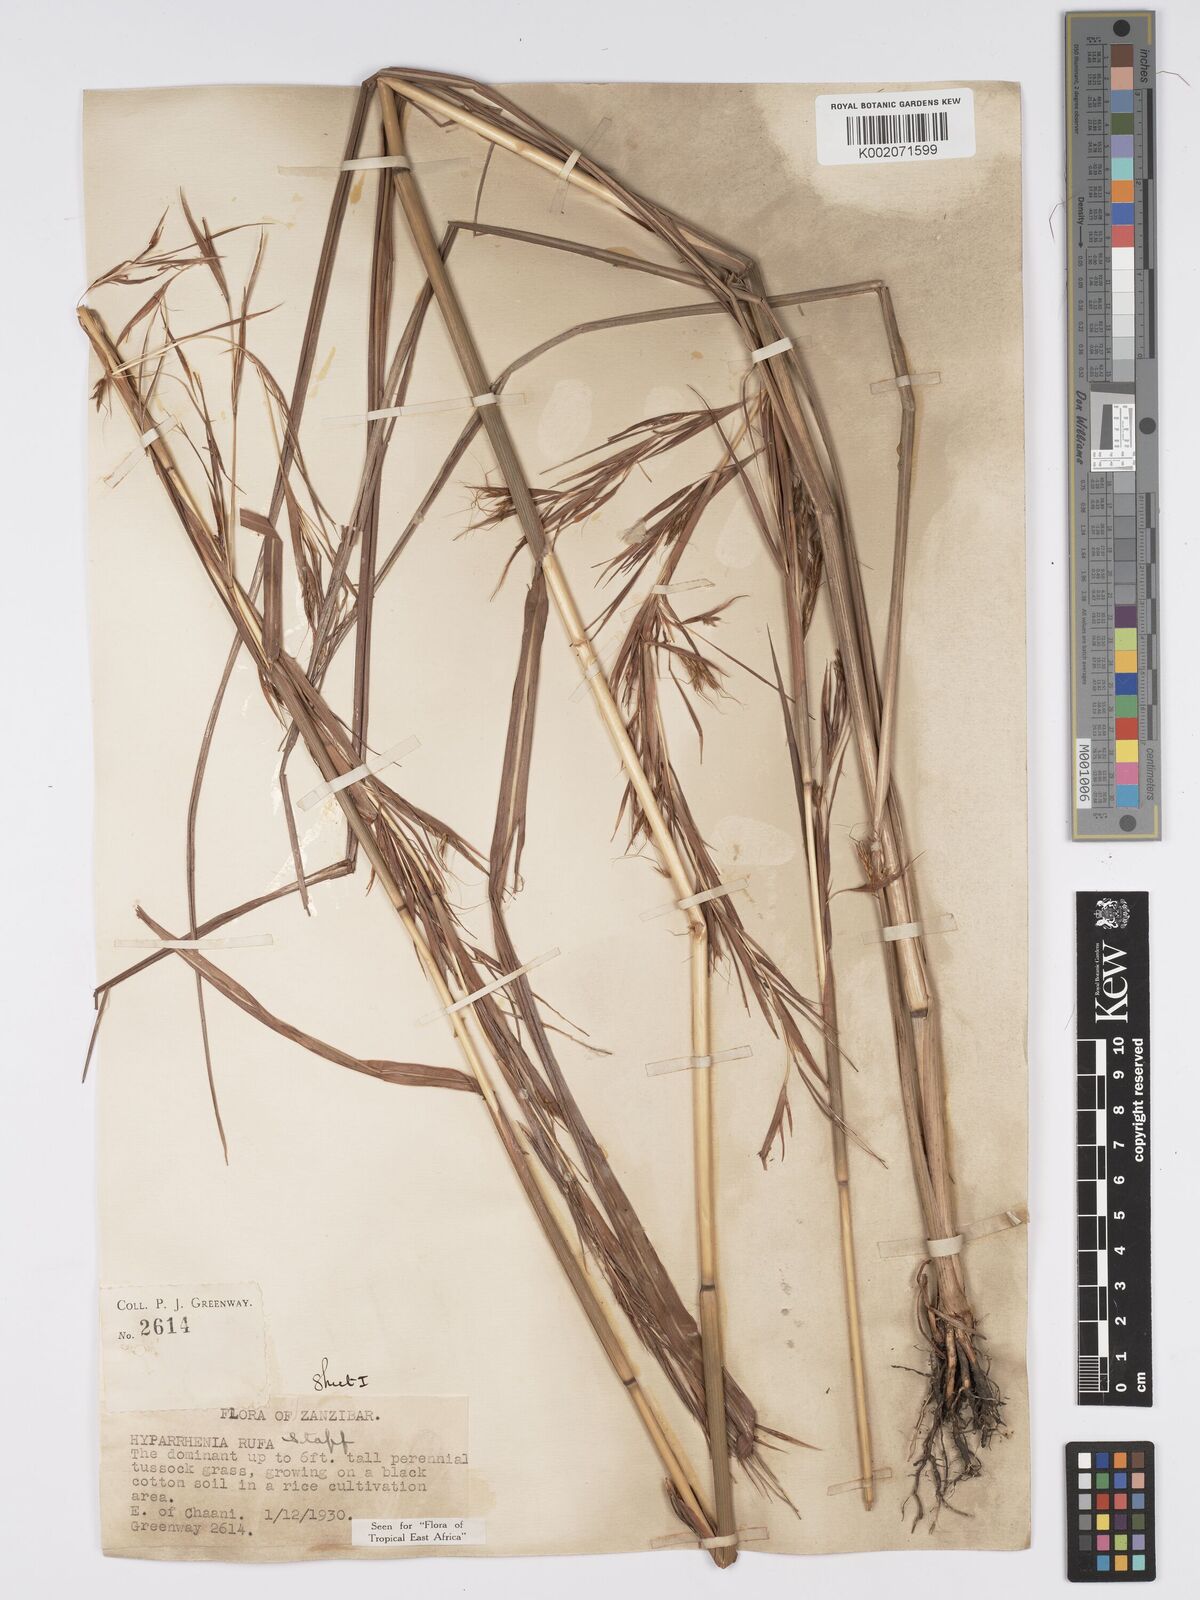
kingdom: Plantae
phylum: Tracheophyta
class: Liliopsida
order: Poales
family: Poaceae
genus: Hyparrhenia
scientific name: Hyparrhenia rufa
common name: Jaraguagrass
